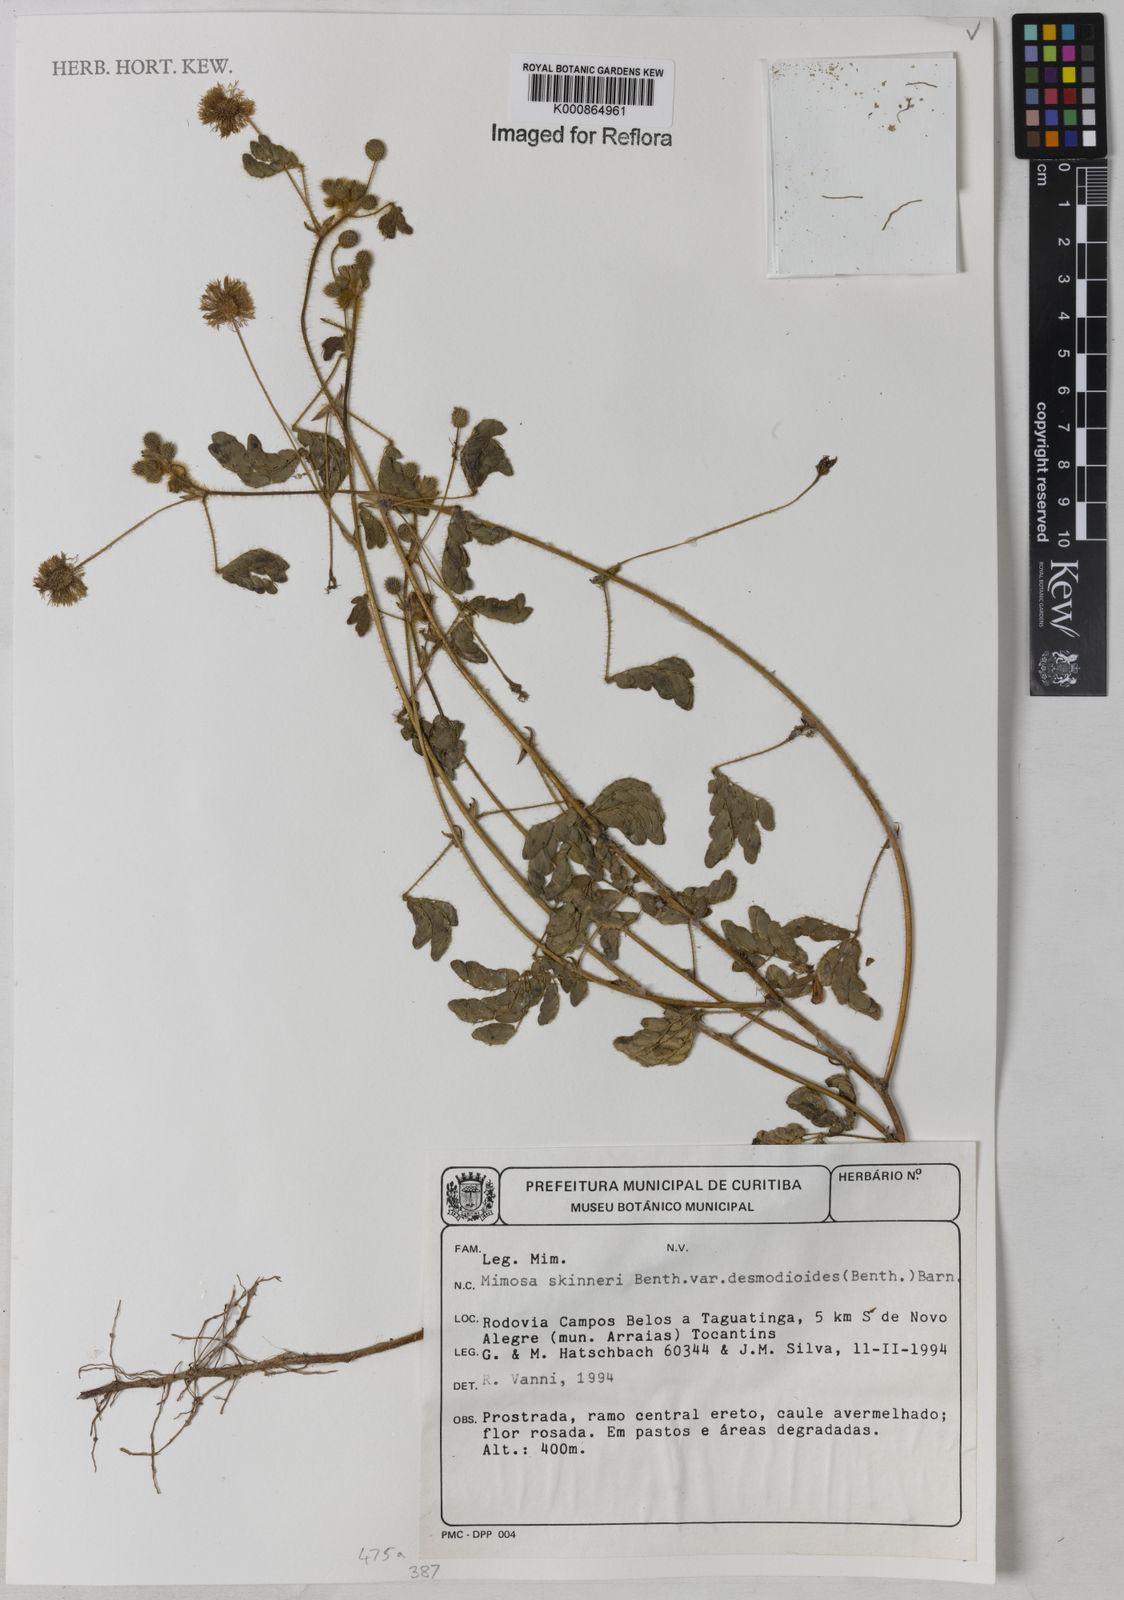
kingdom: Plantae
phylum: Tracheophyta
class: Magnoliopsida
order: Fabales
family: Fabaceae
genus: Mimosa
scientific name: Mimosa skinneri
